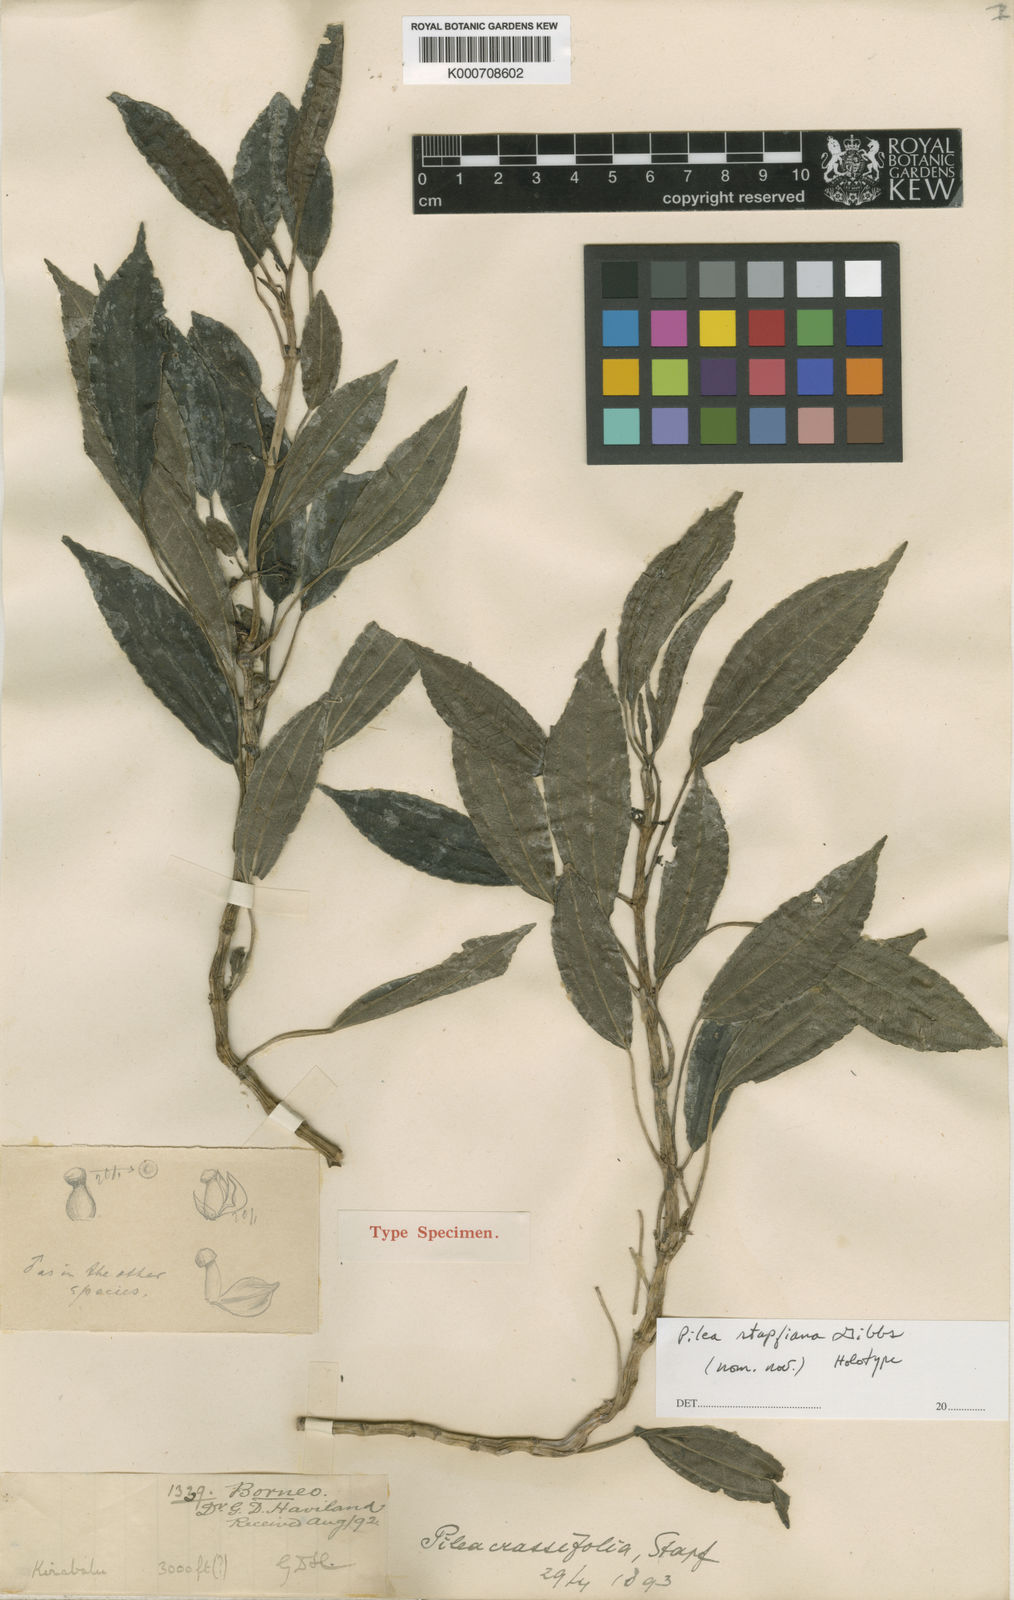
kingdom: Plantae
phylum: Tracheophyta
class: Magnoliopsida
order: Rosales
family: Urticaceae
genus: Pilea
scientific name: Pilea stapfiana
